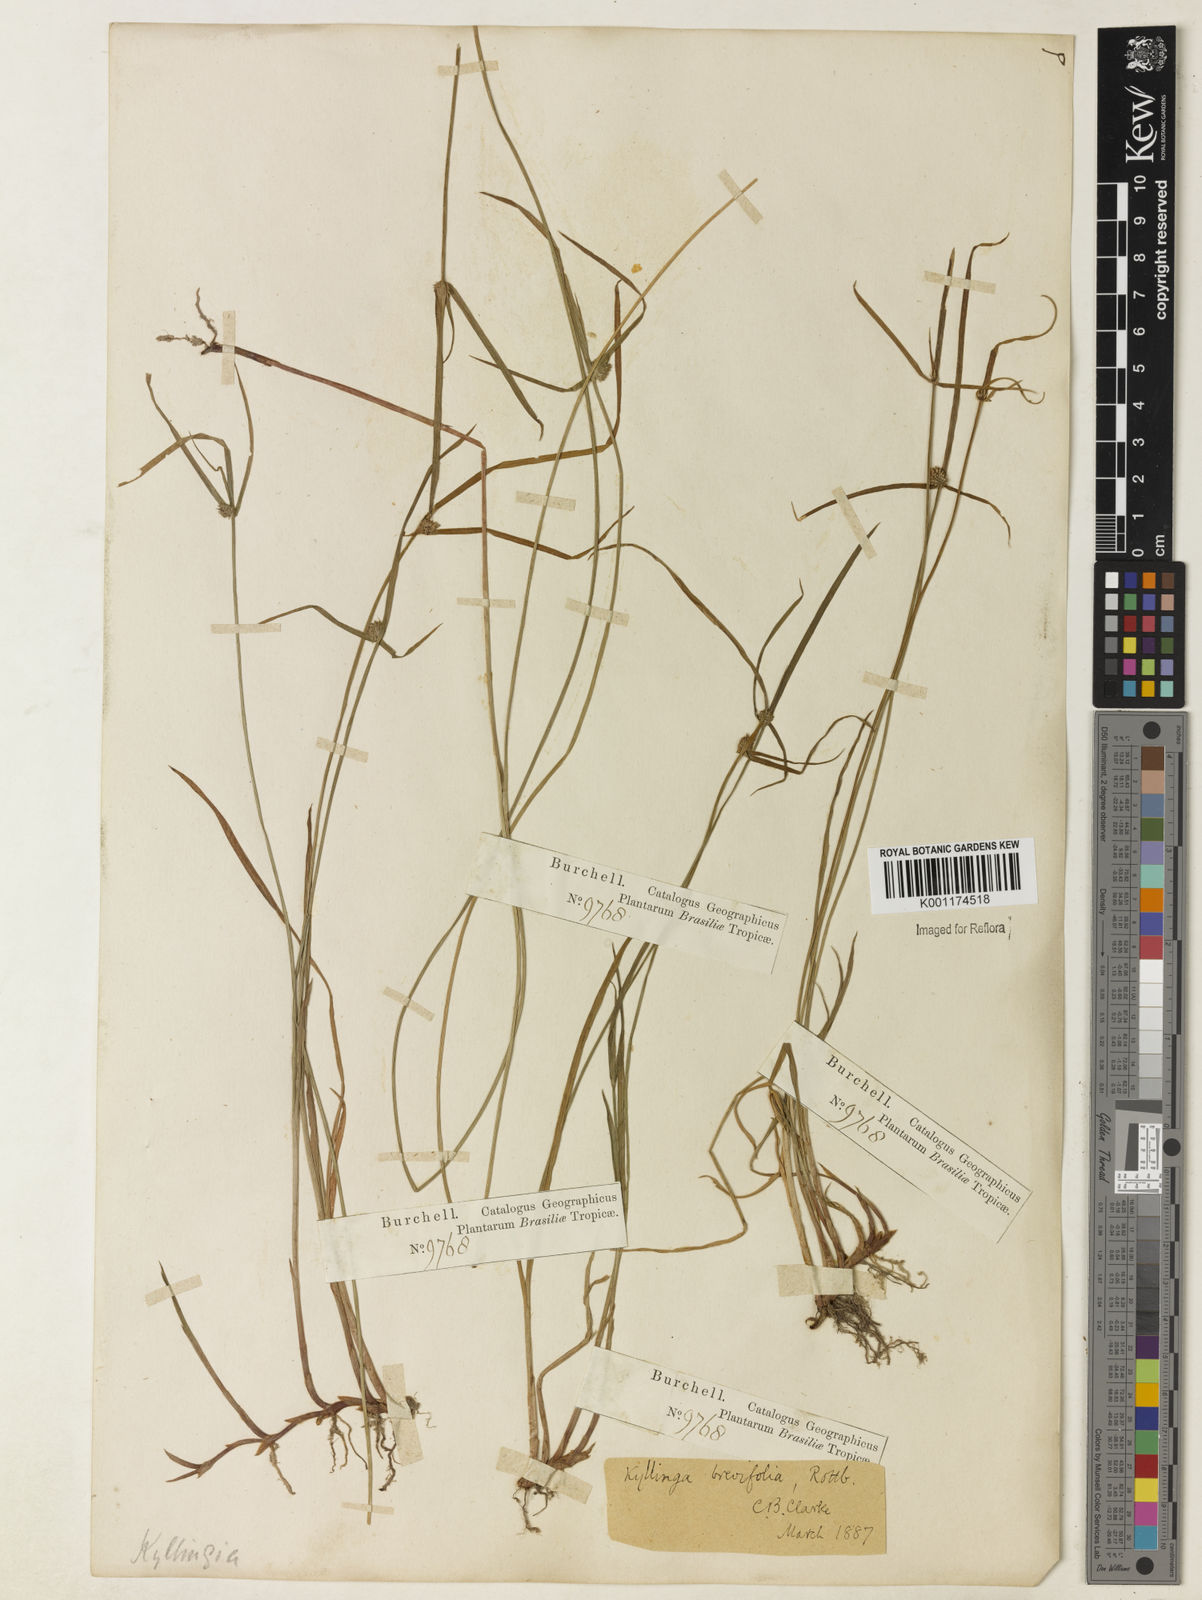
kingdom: Plantae
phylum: Tracheophyta
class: Liliopsida
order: Poales
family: Cyperaceae
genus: Cyperus
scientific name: Cyperus brevifolius
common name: Globe kyllinga
